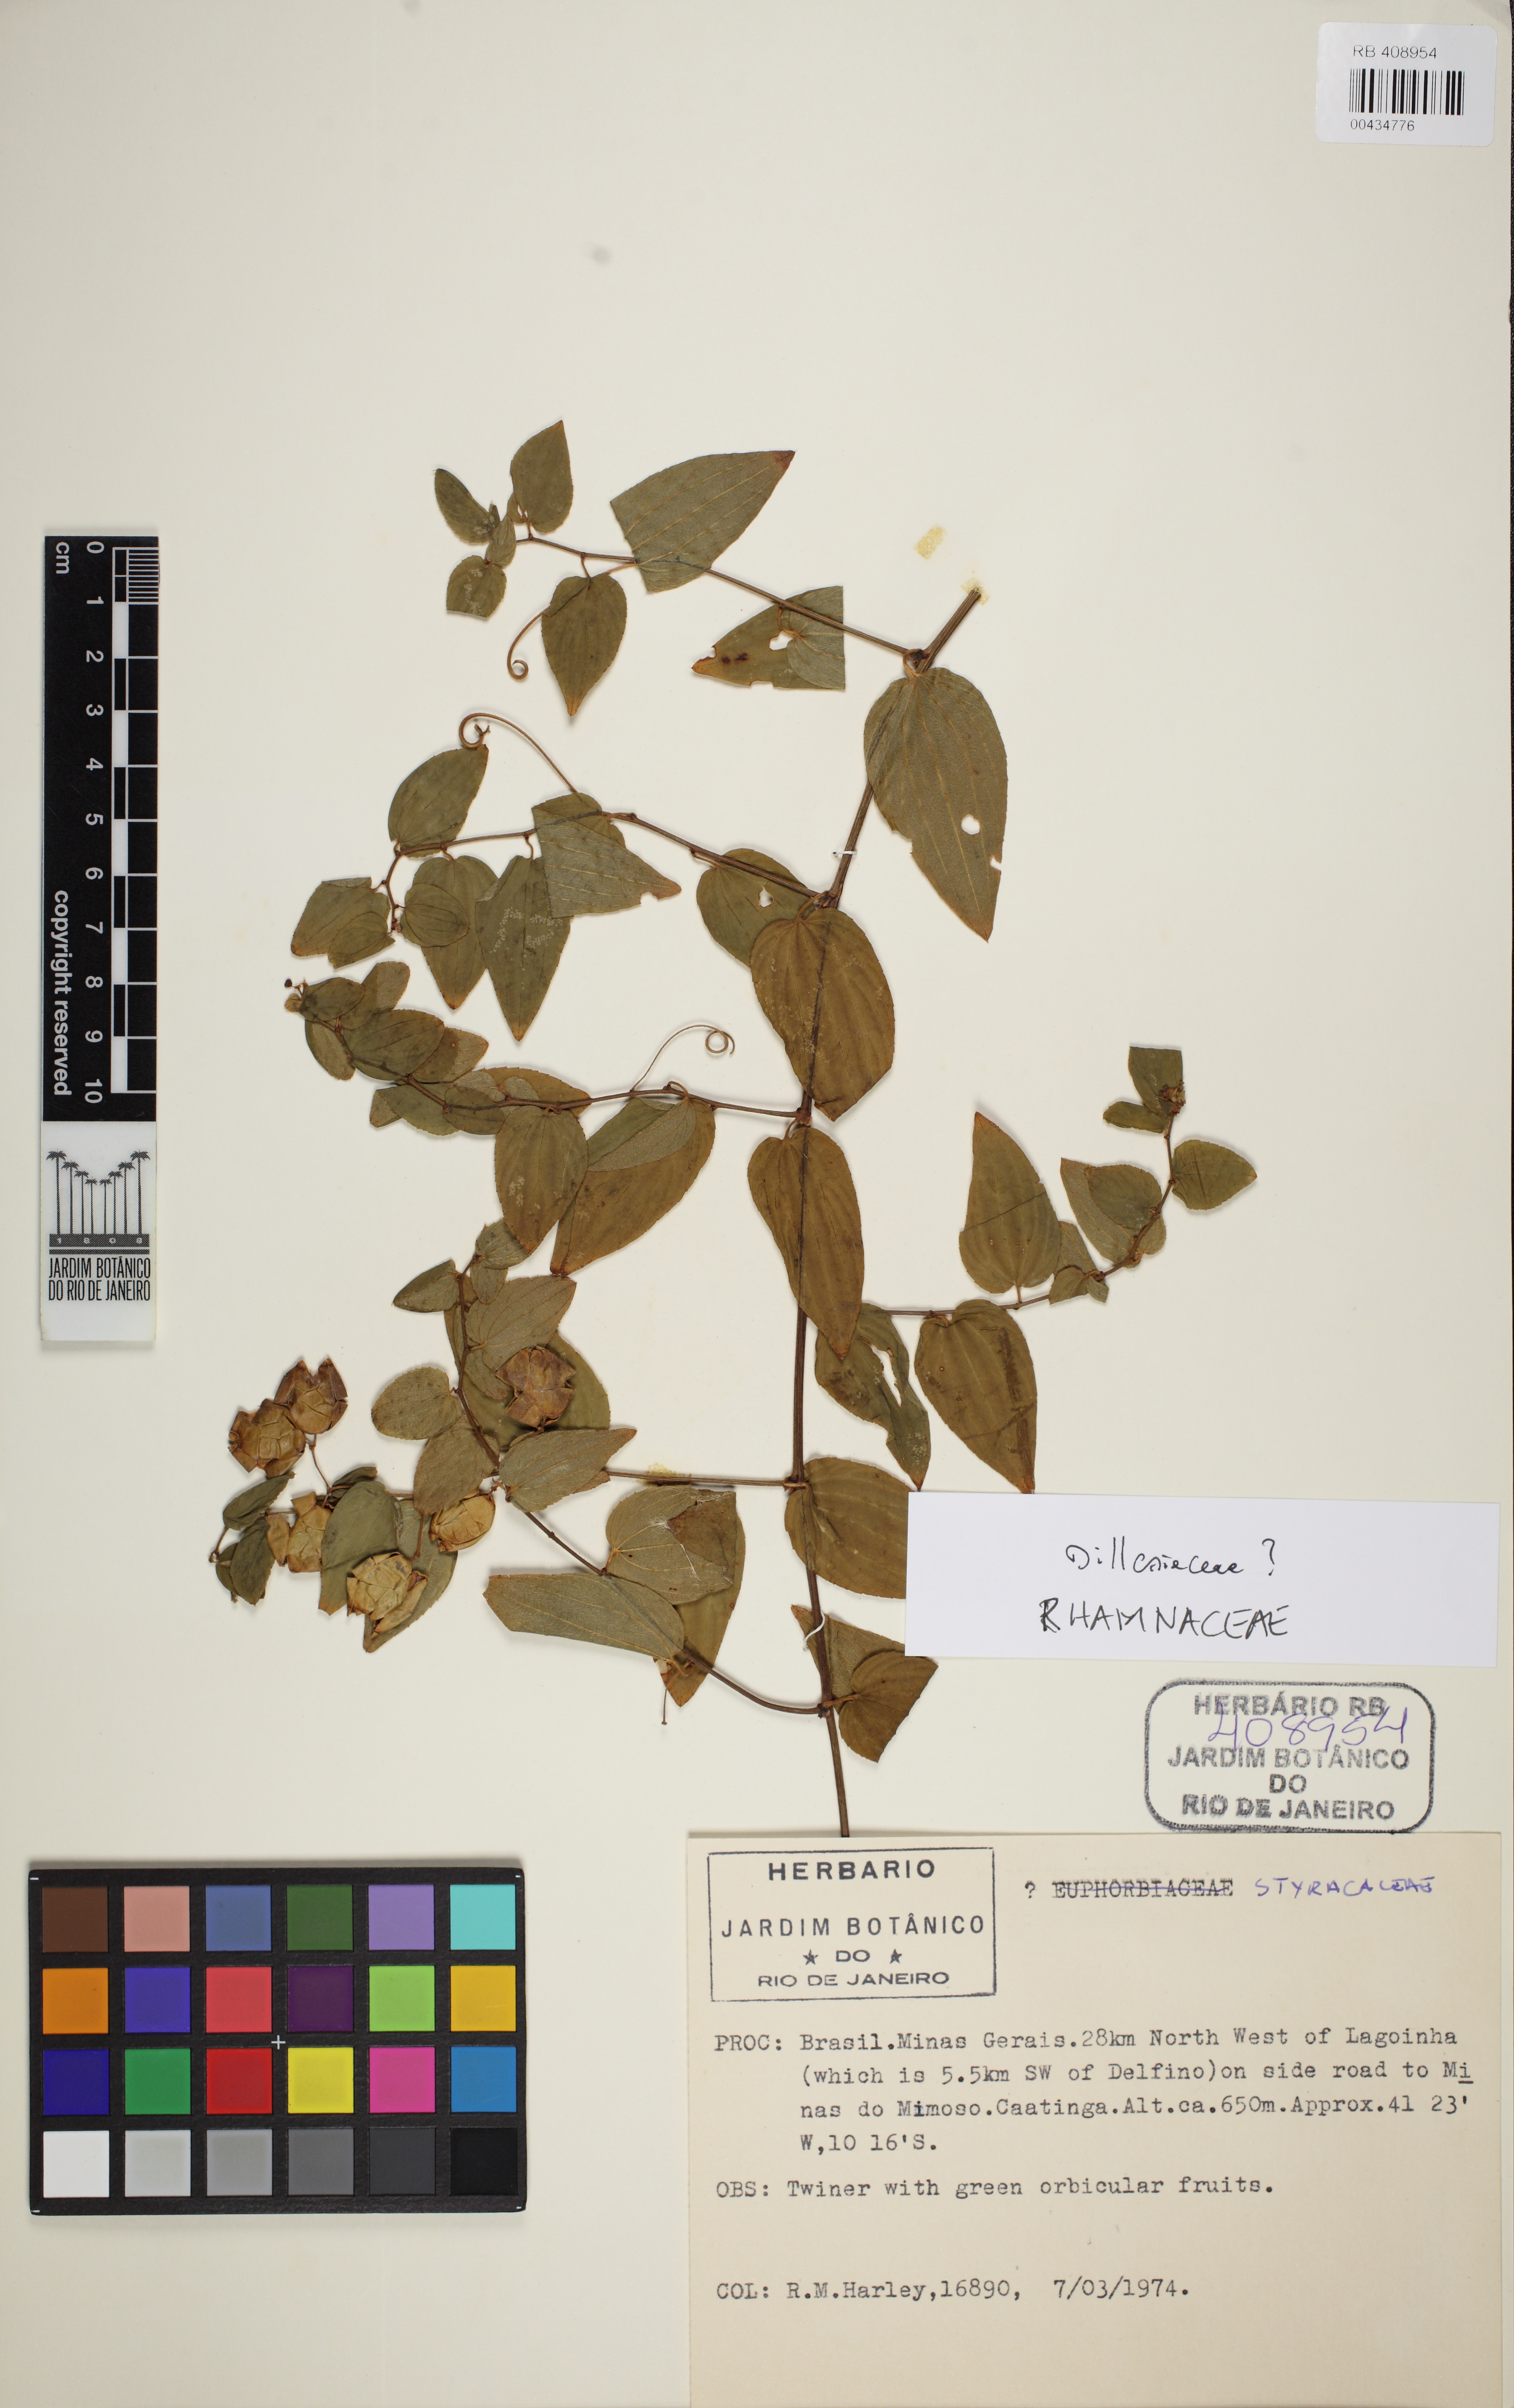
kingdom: Plantae
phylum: Tracheophyta
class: Magnoliopsida
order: Rosales
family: Rhamnaceae
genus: Alvimiantha
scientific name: Alvimiantha tricamerata
